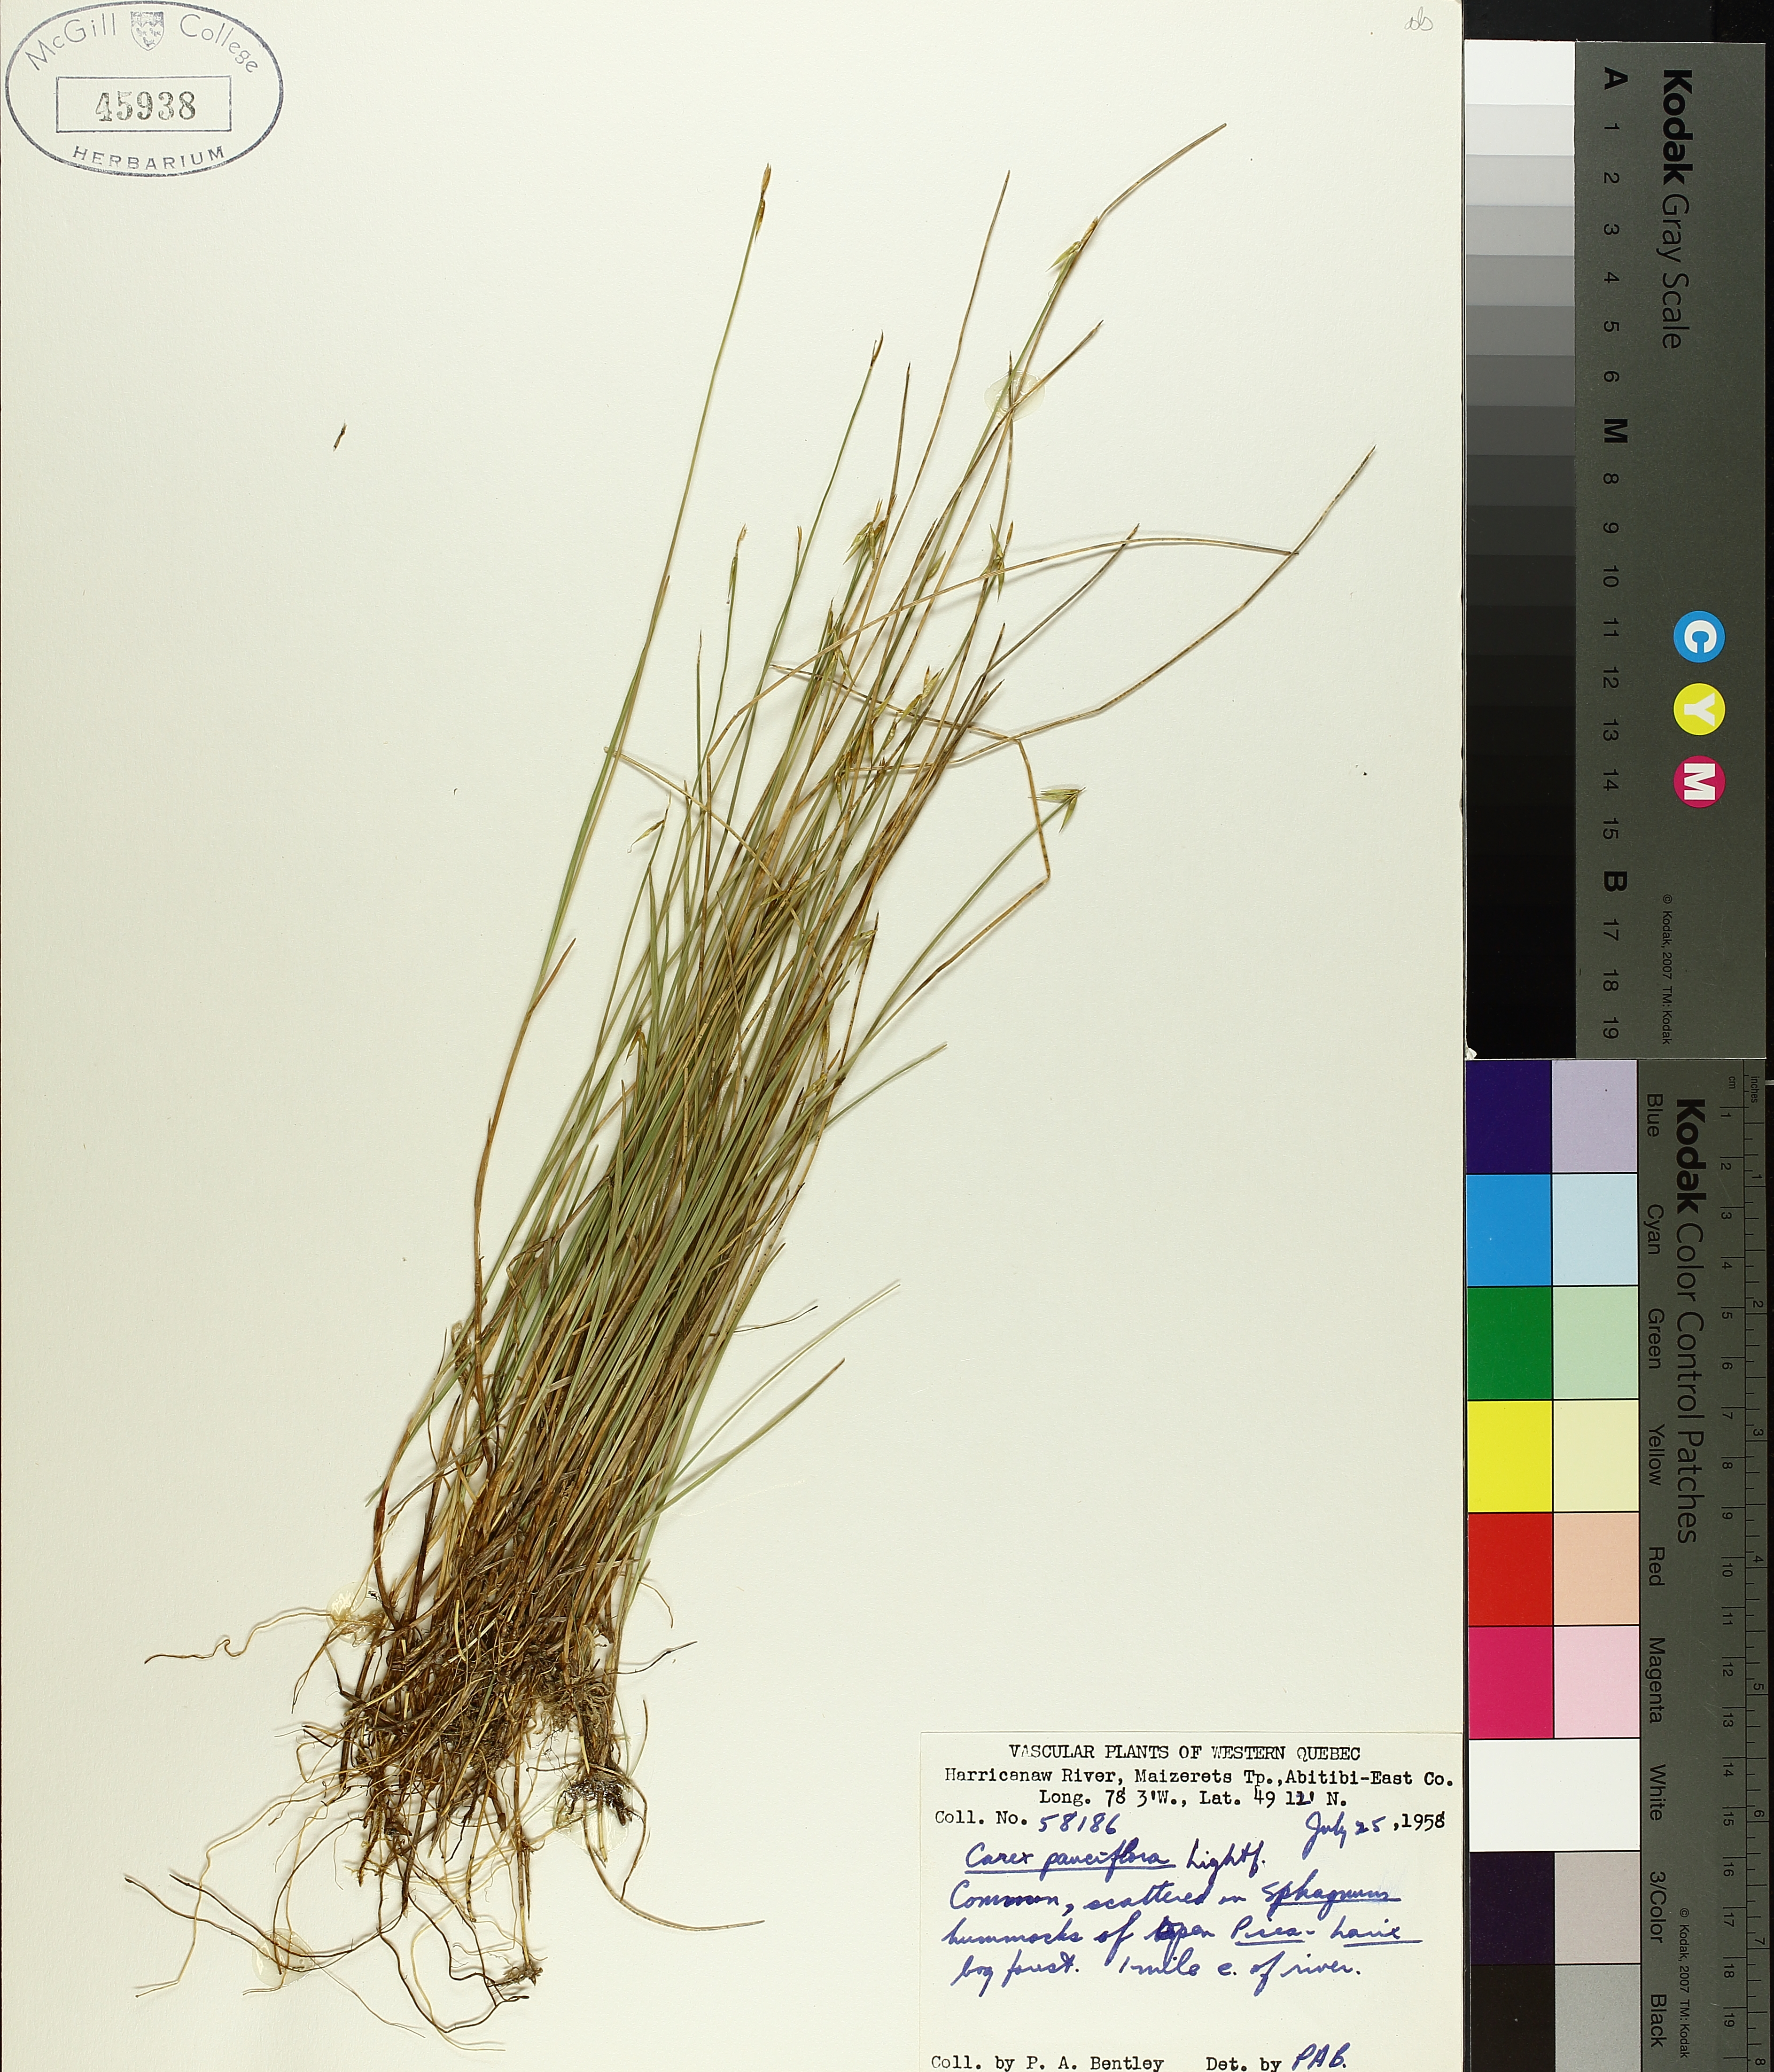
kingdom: Plantae
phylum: Tracheophyta
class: Liliopsida
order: Poales
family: Cyperaceae
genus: Carex
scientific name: Carex pauciflora
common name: Few-flowered sedge
